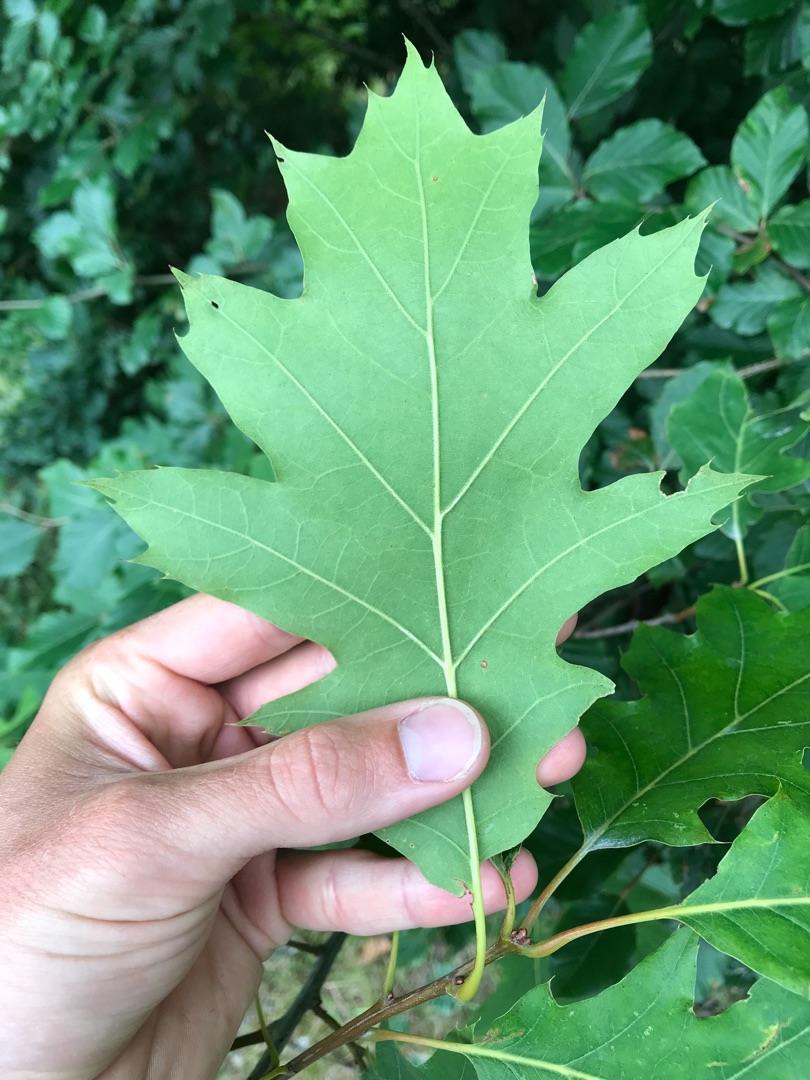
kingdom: Plantae
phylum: Tracheophyta
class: Magnoliopsida
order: Fagales
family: Fagaceae
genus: Quercus
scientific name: Quercus rubra
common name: Rød-eg
